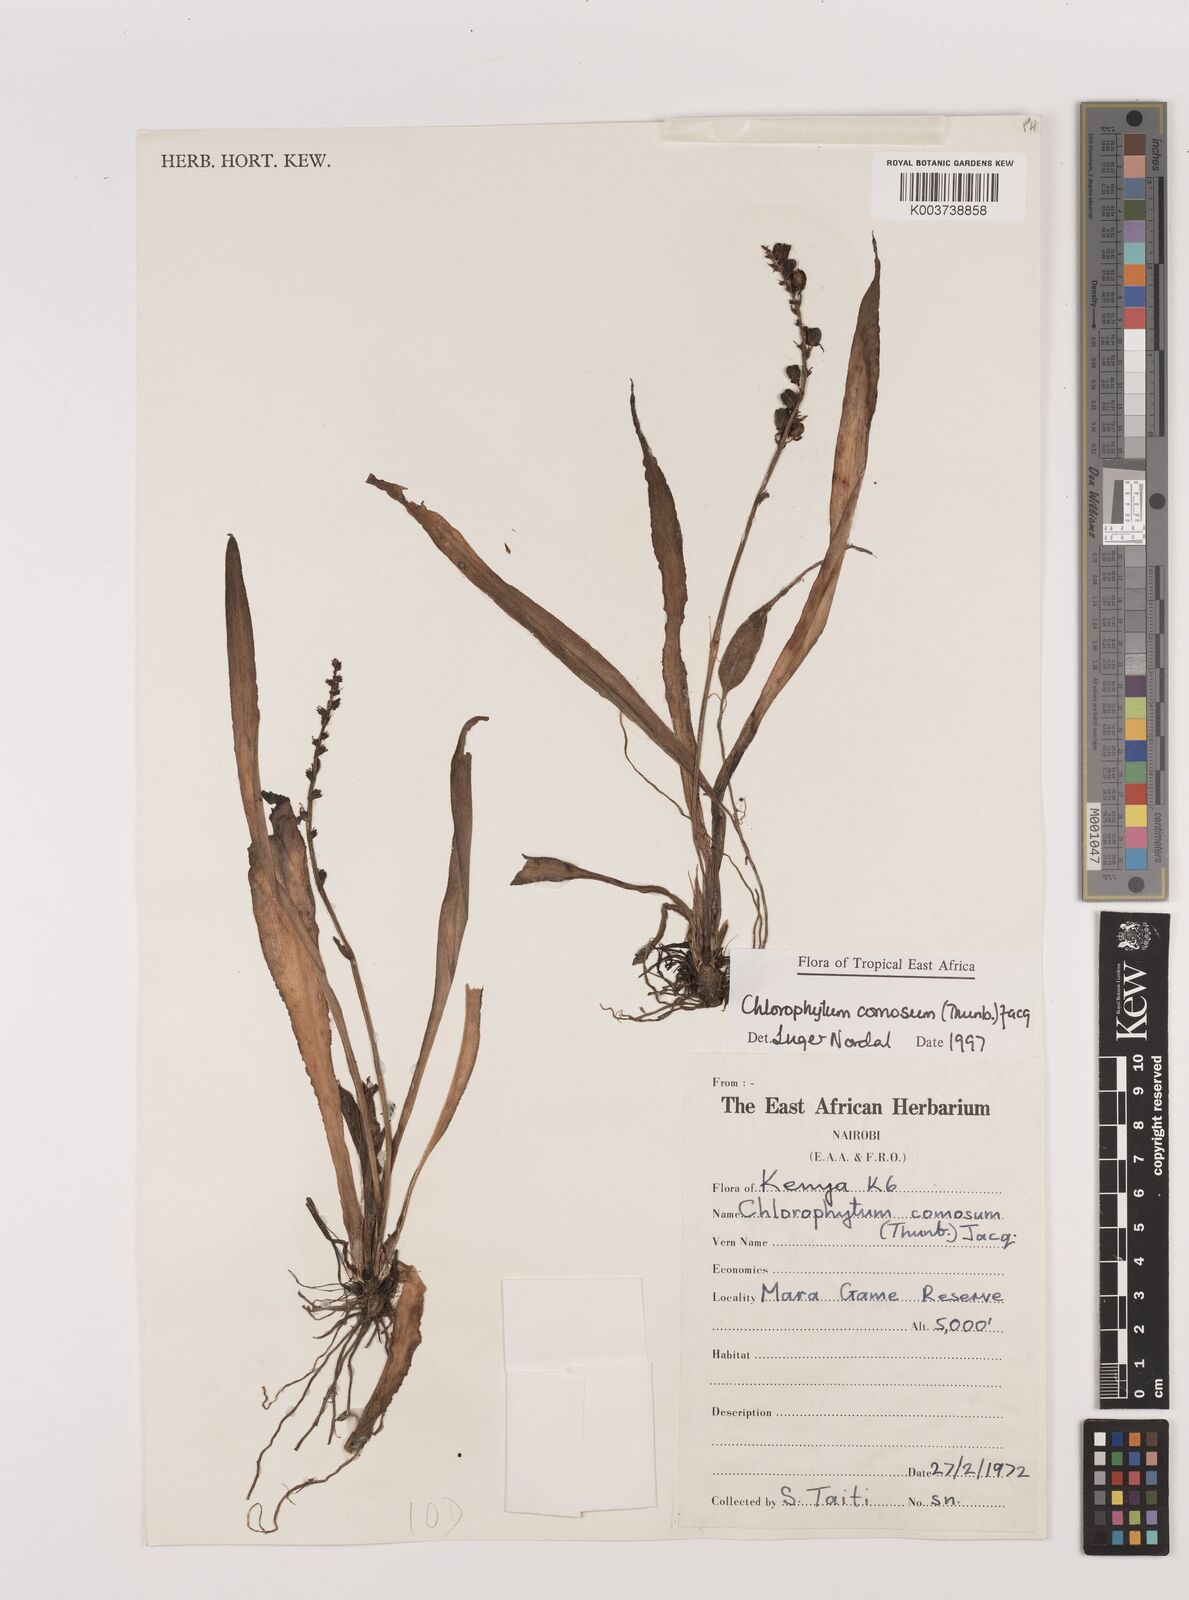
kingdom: Plantae
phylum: Tracheophyta
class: Liliopsida
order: Asparagales
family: Asparagaceae
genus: Chlorophytum
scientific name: Chlorophytum comosum
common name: Spider plant
